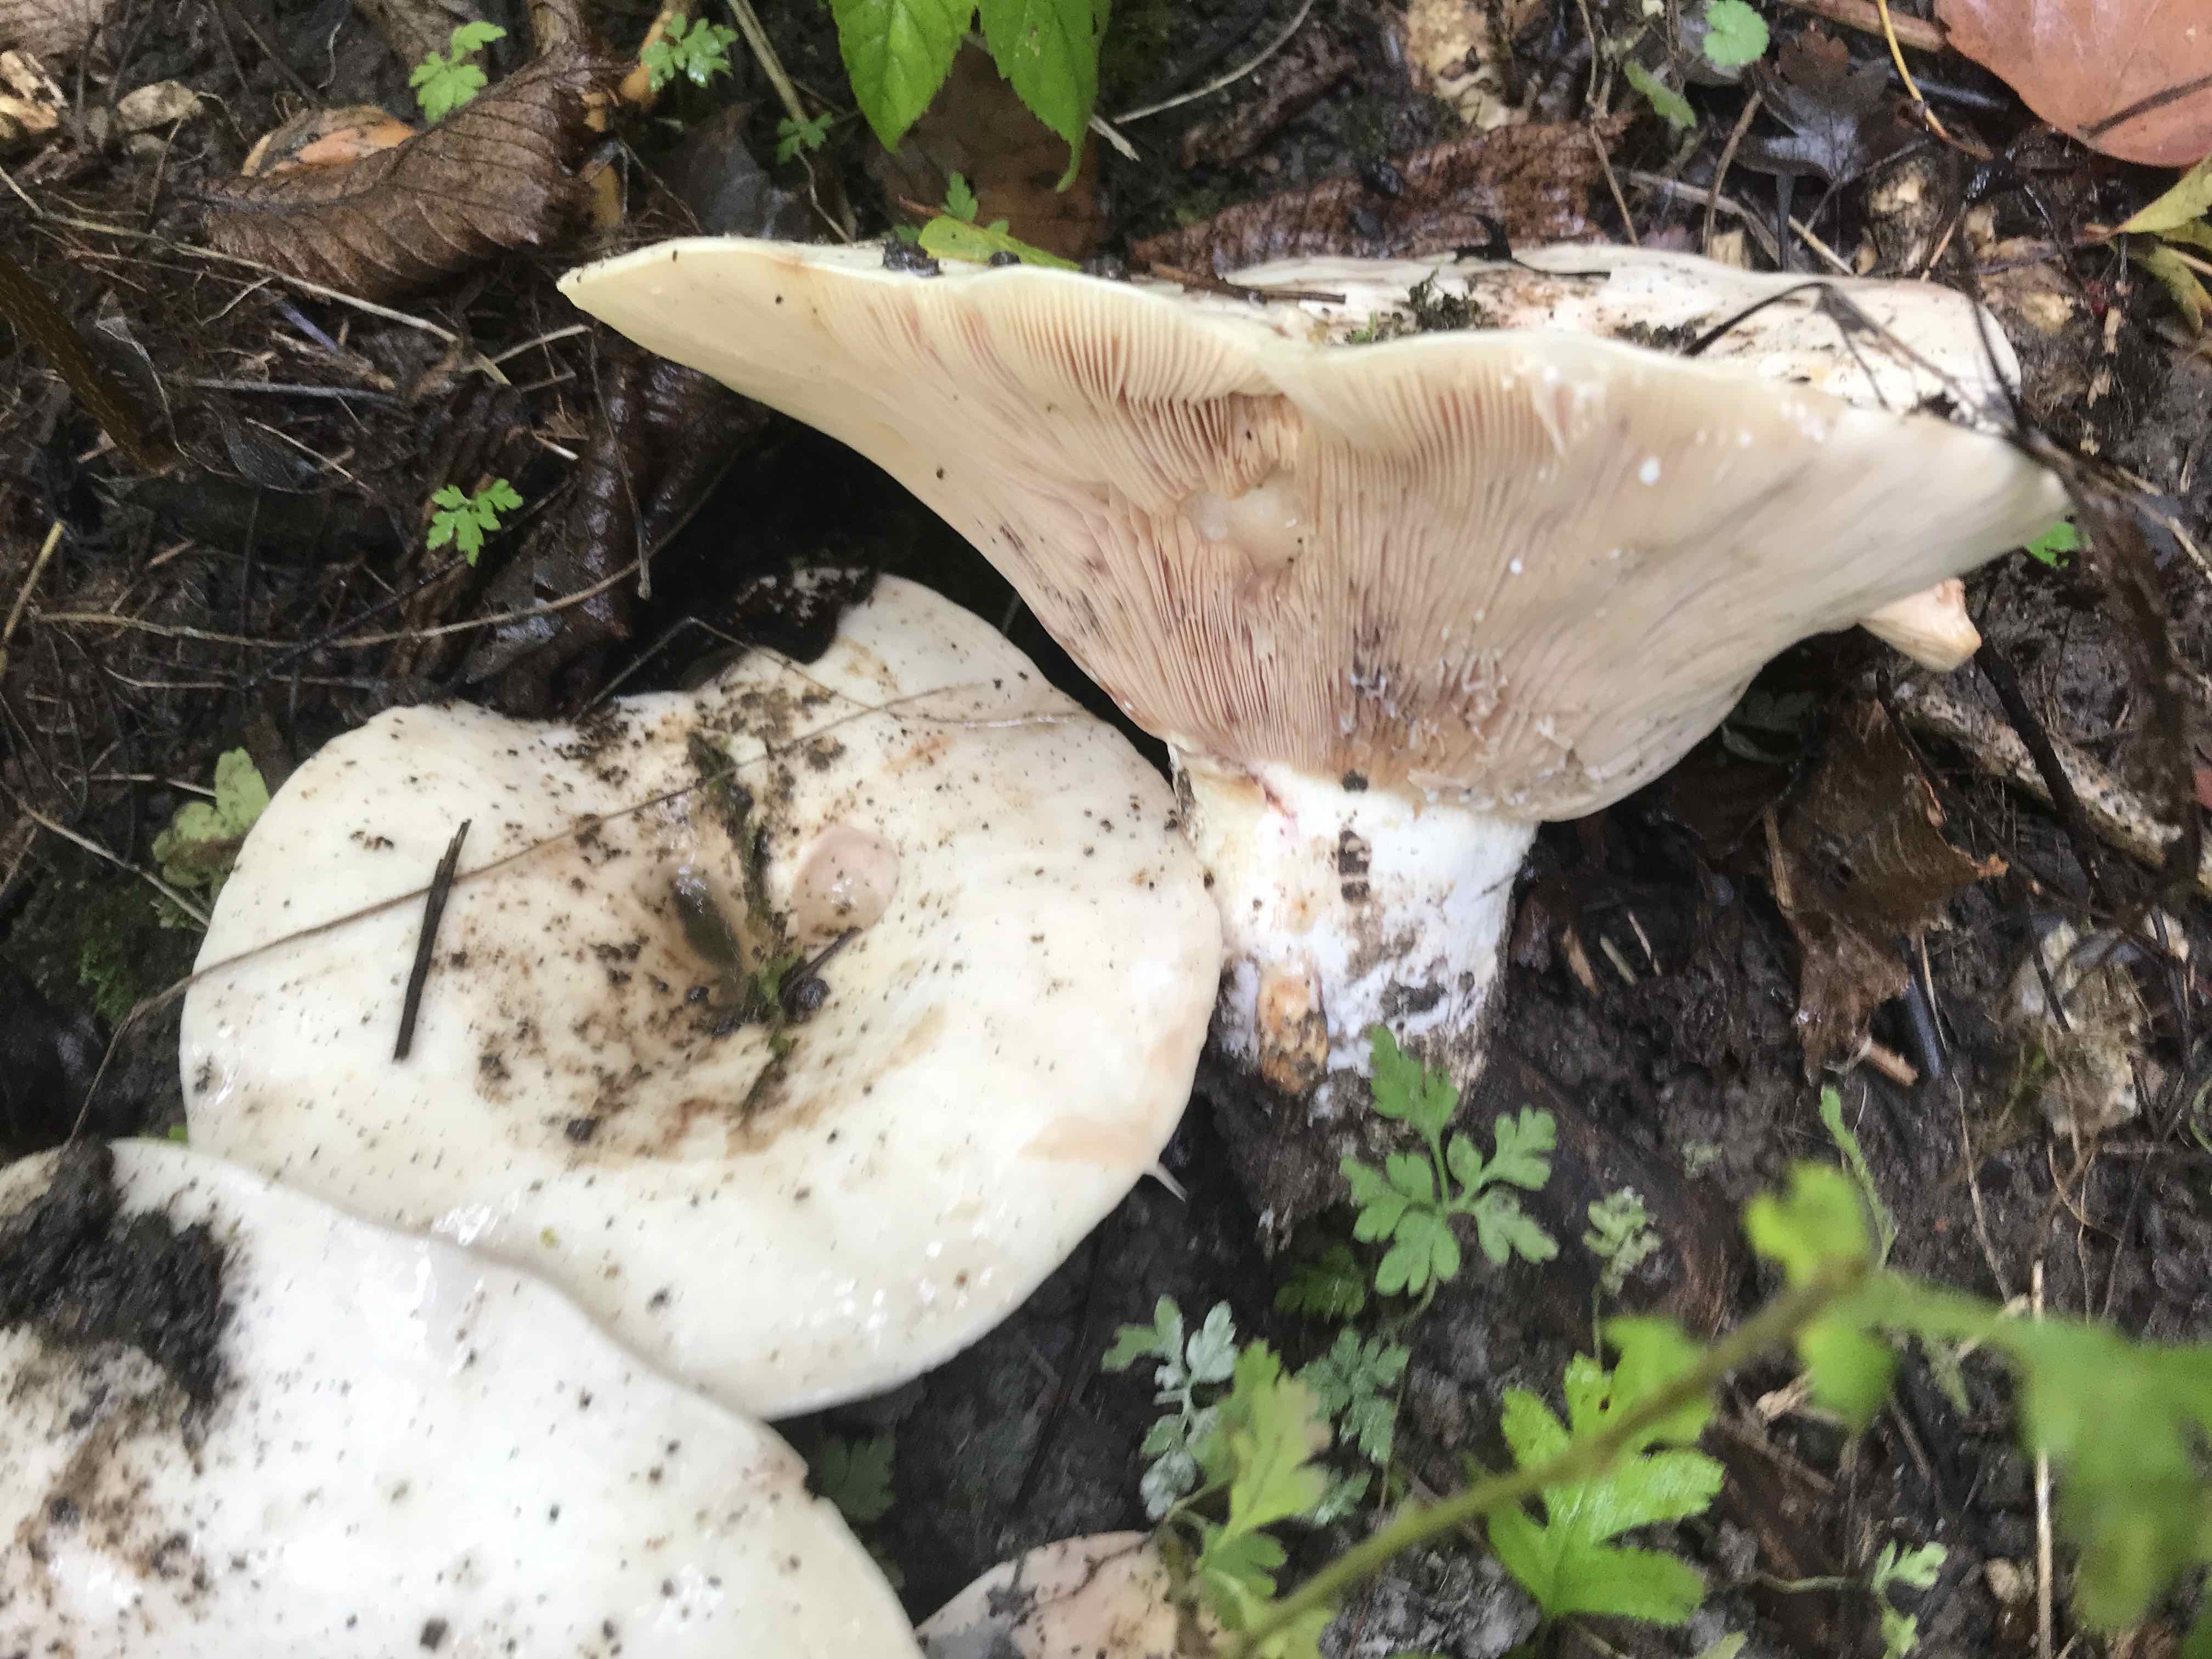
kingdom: Fungi
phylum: Basidiomycota
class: Agaricomycetes
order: Russulales
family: Russulaceae
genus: Lactarius
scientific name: Lactarius controversus
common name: rosabladet mælkehat
